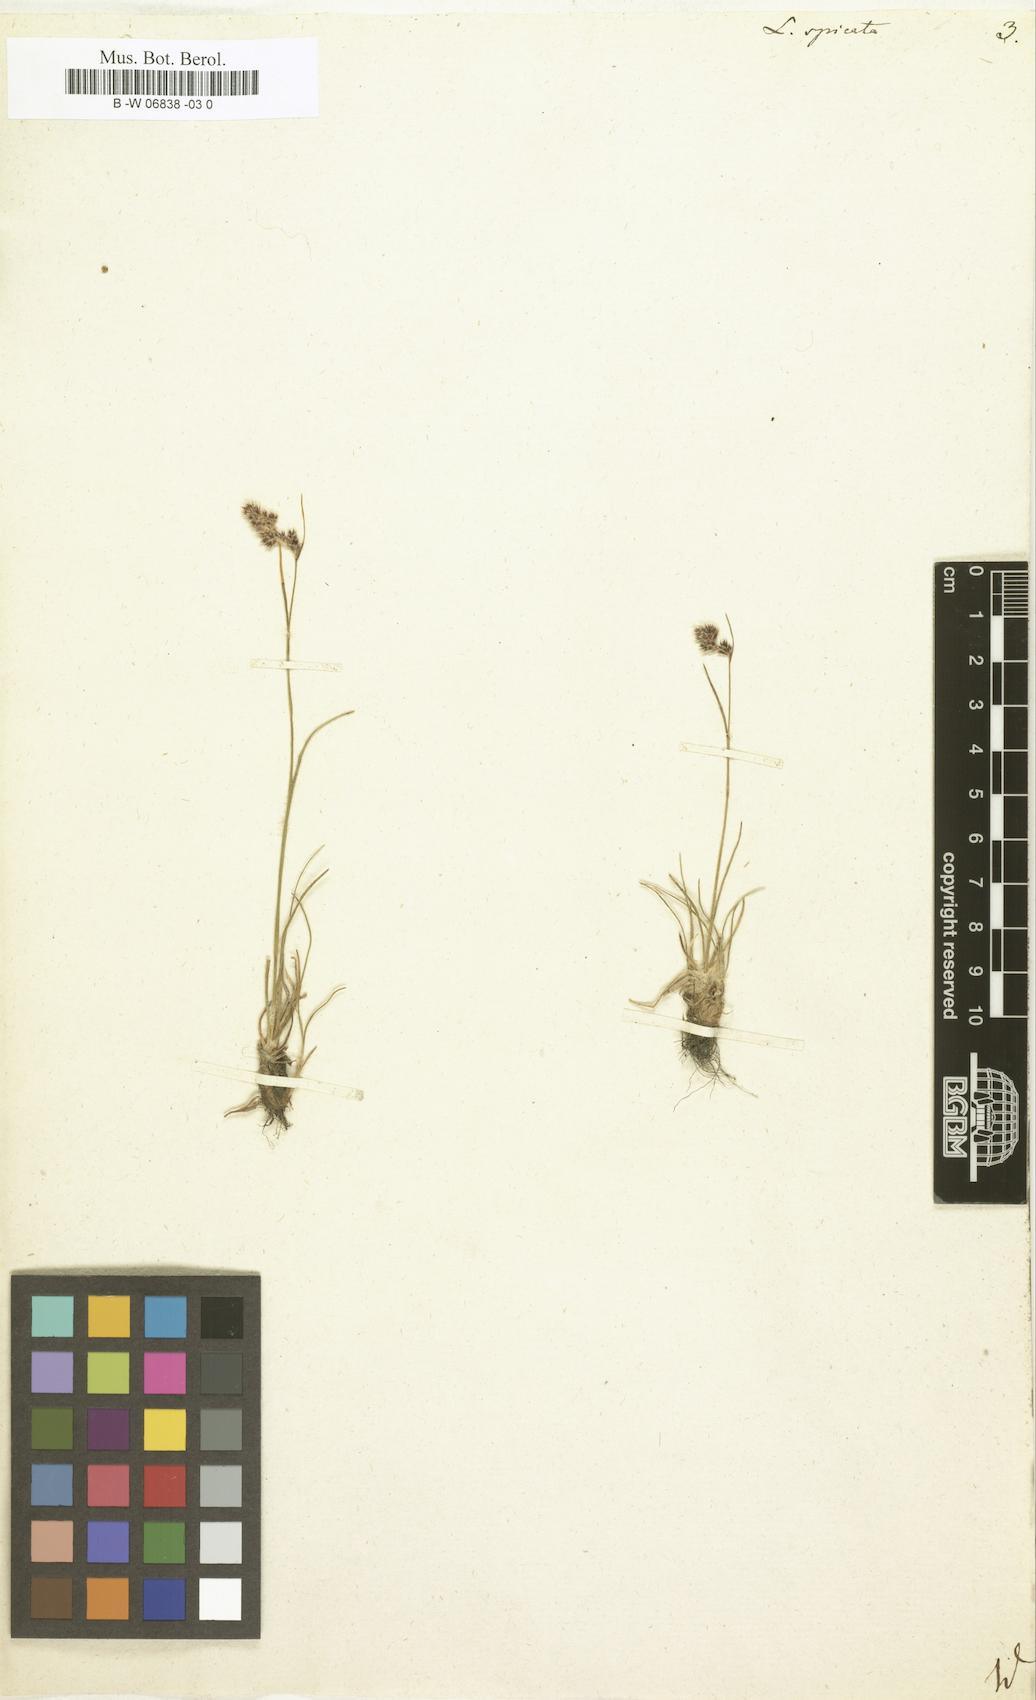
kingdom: Plantae
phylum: Tracheophyta
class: Liliopsida
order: Poales
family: Juncaceae
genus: Luzula
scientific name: Luzula spicata
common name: Spiked wood-rush
